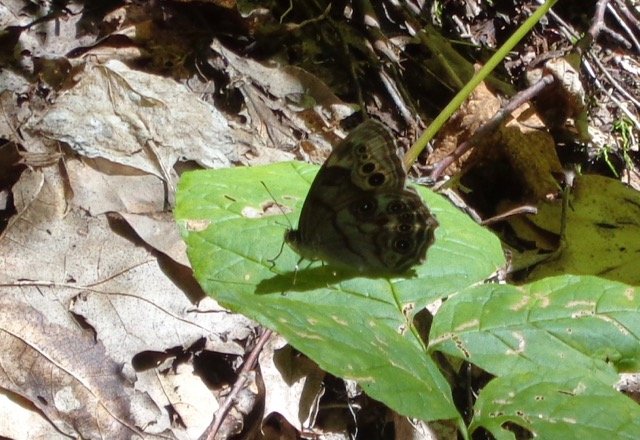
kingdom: Animalia
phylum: Arthropoda
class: Insecta
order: Lepidoptera
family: Nymphalidae
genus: Lethe
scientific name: Lethe anthedon
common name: Northern Pearly-Eye
